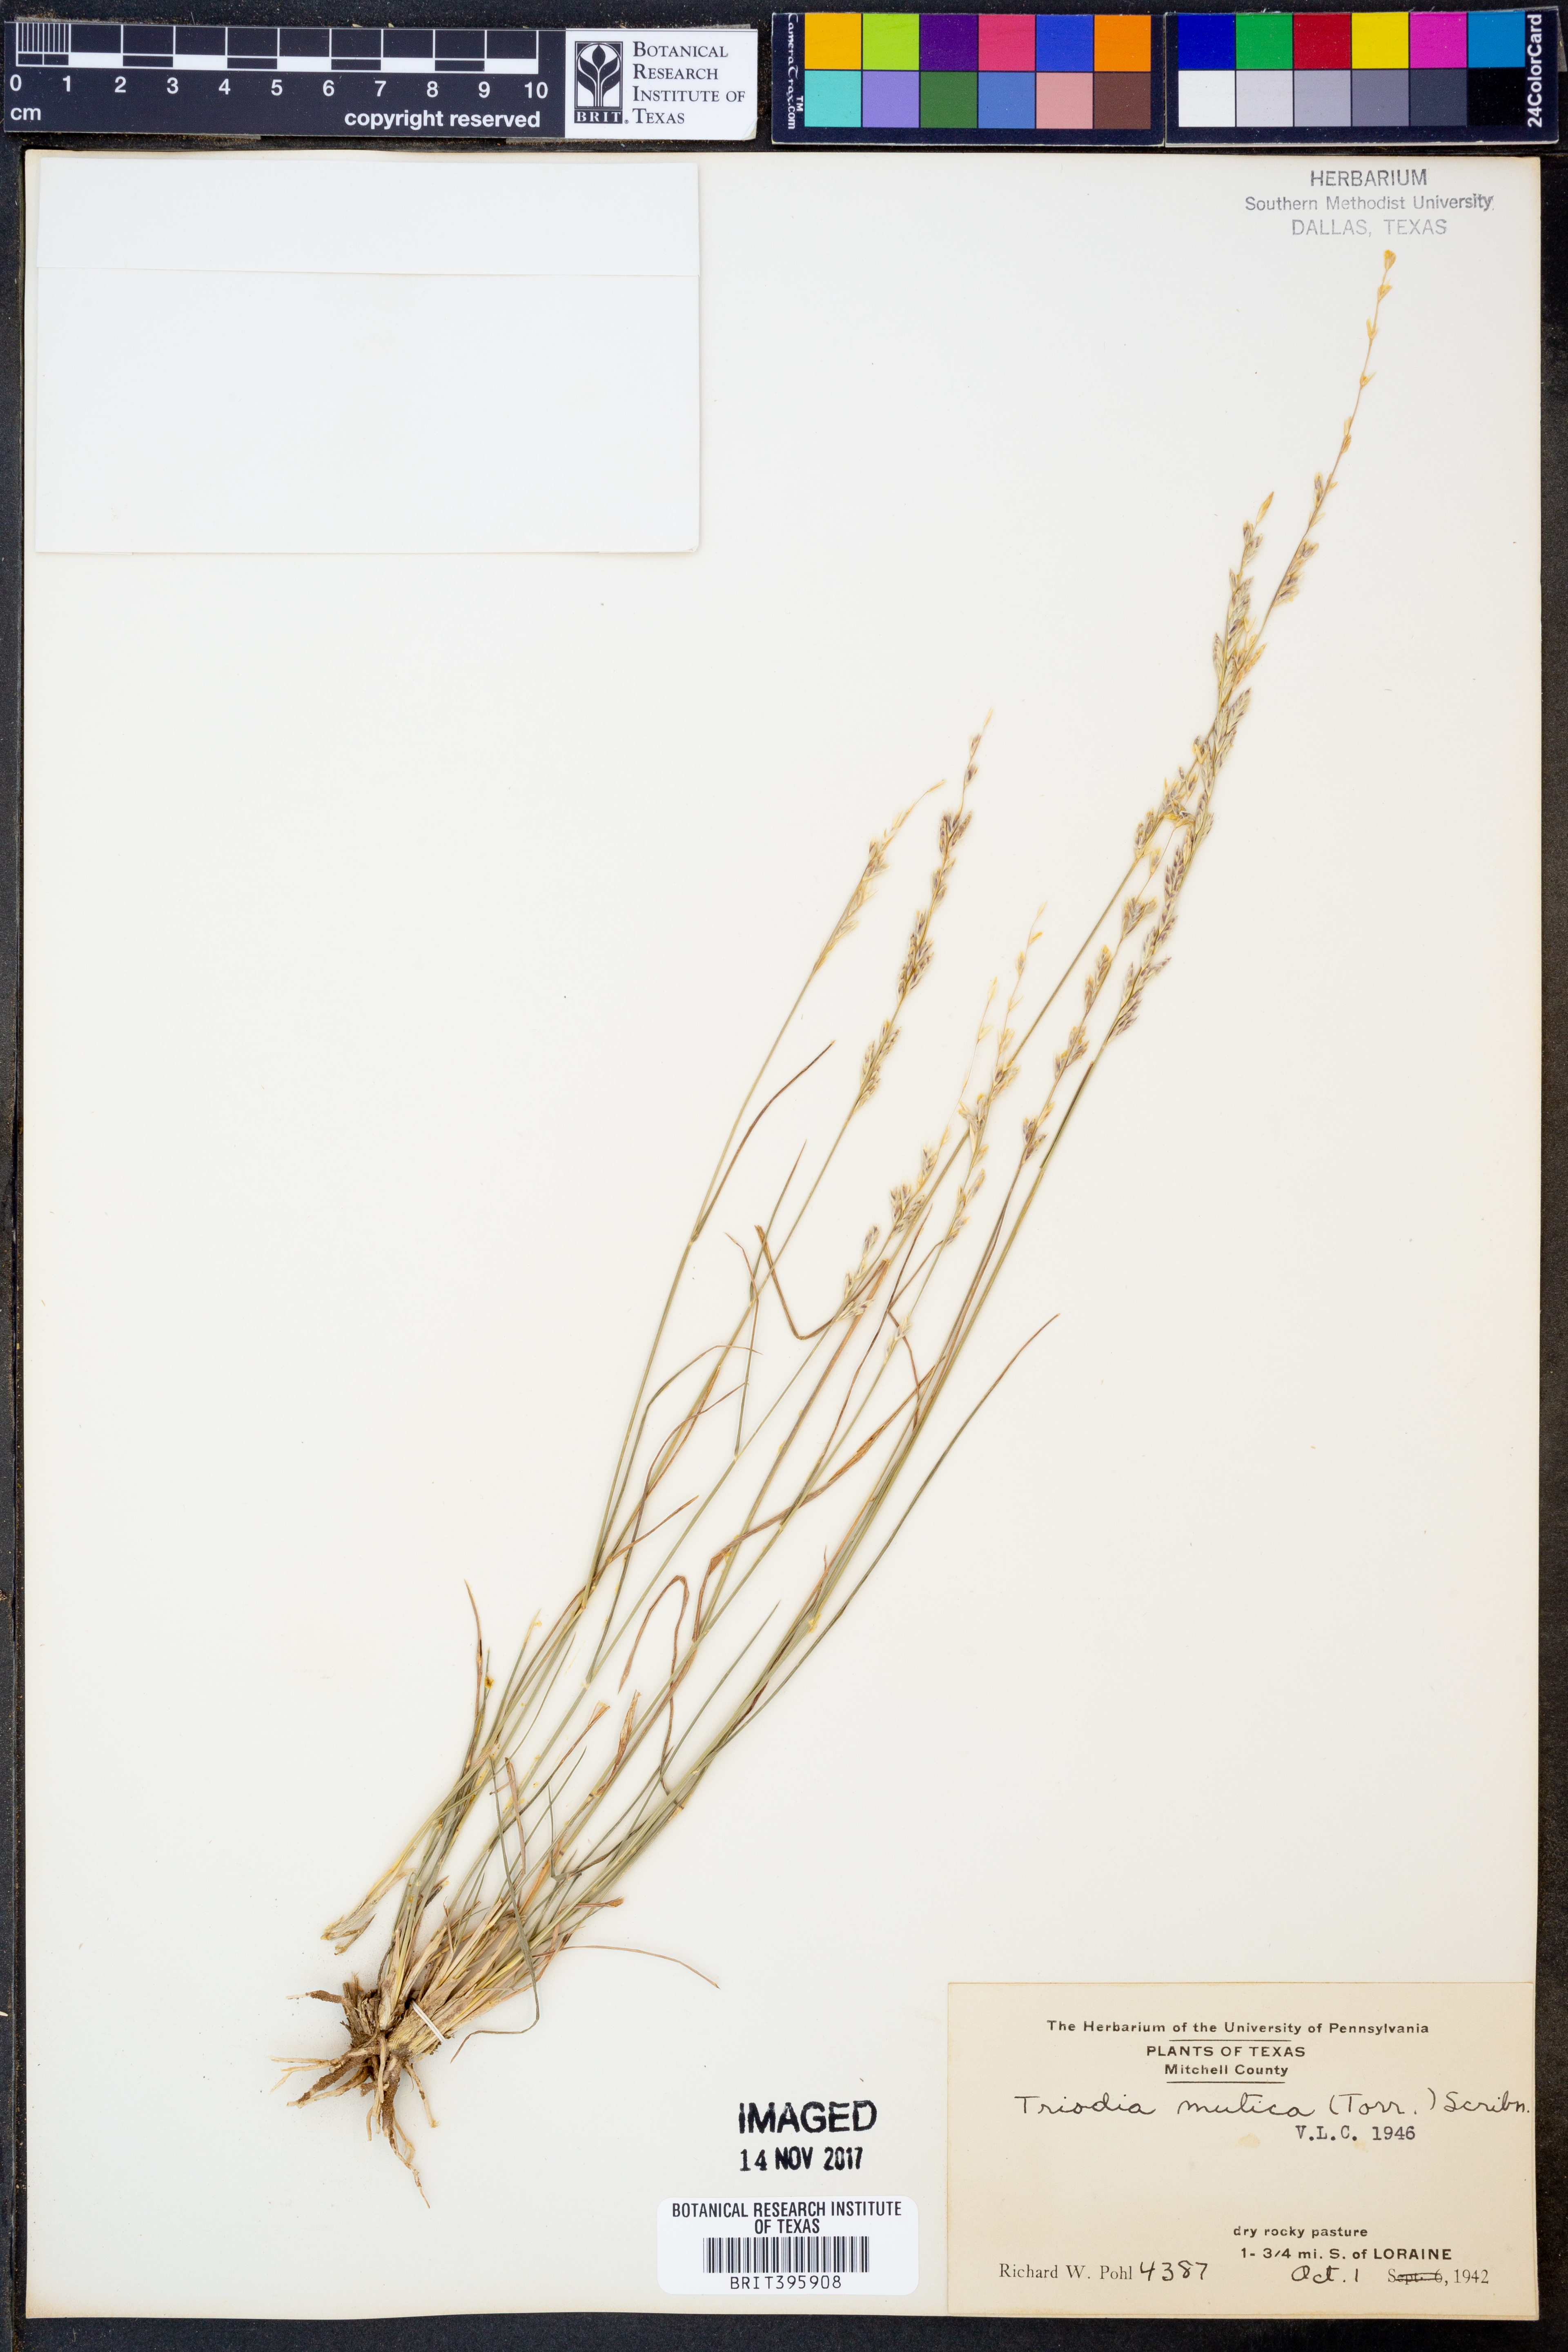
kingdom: Plantae
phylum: Tracheophyta
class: Liliopsida
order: Poales
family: Poaceae
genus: Tridentopsis
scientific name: Tridentopsis mutica
